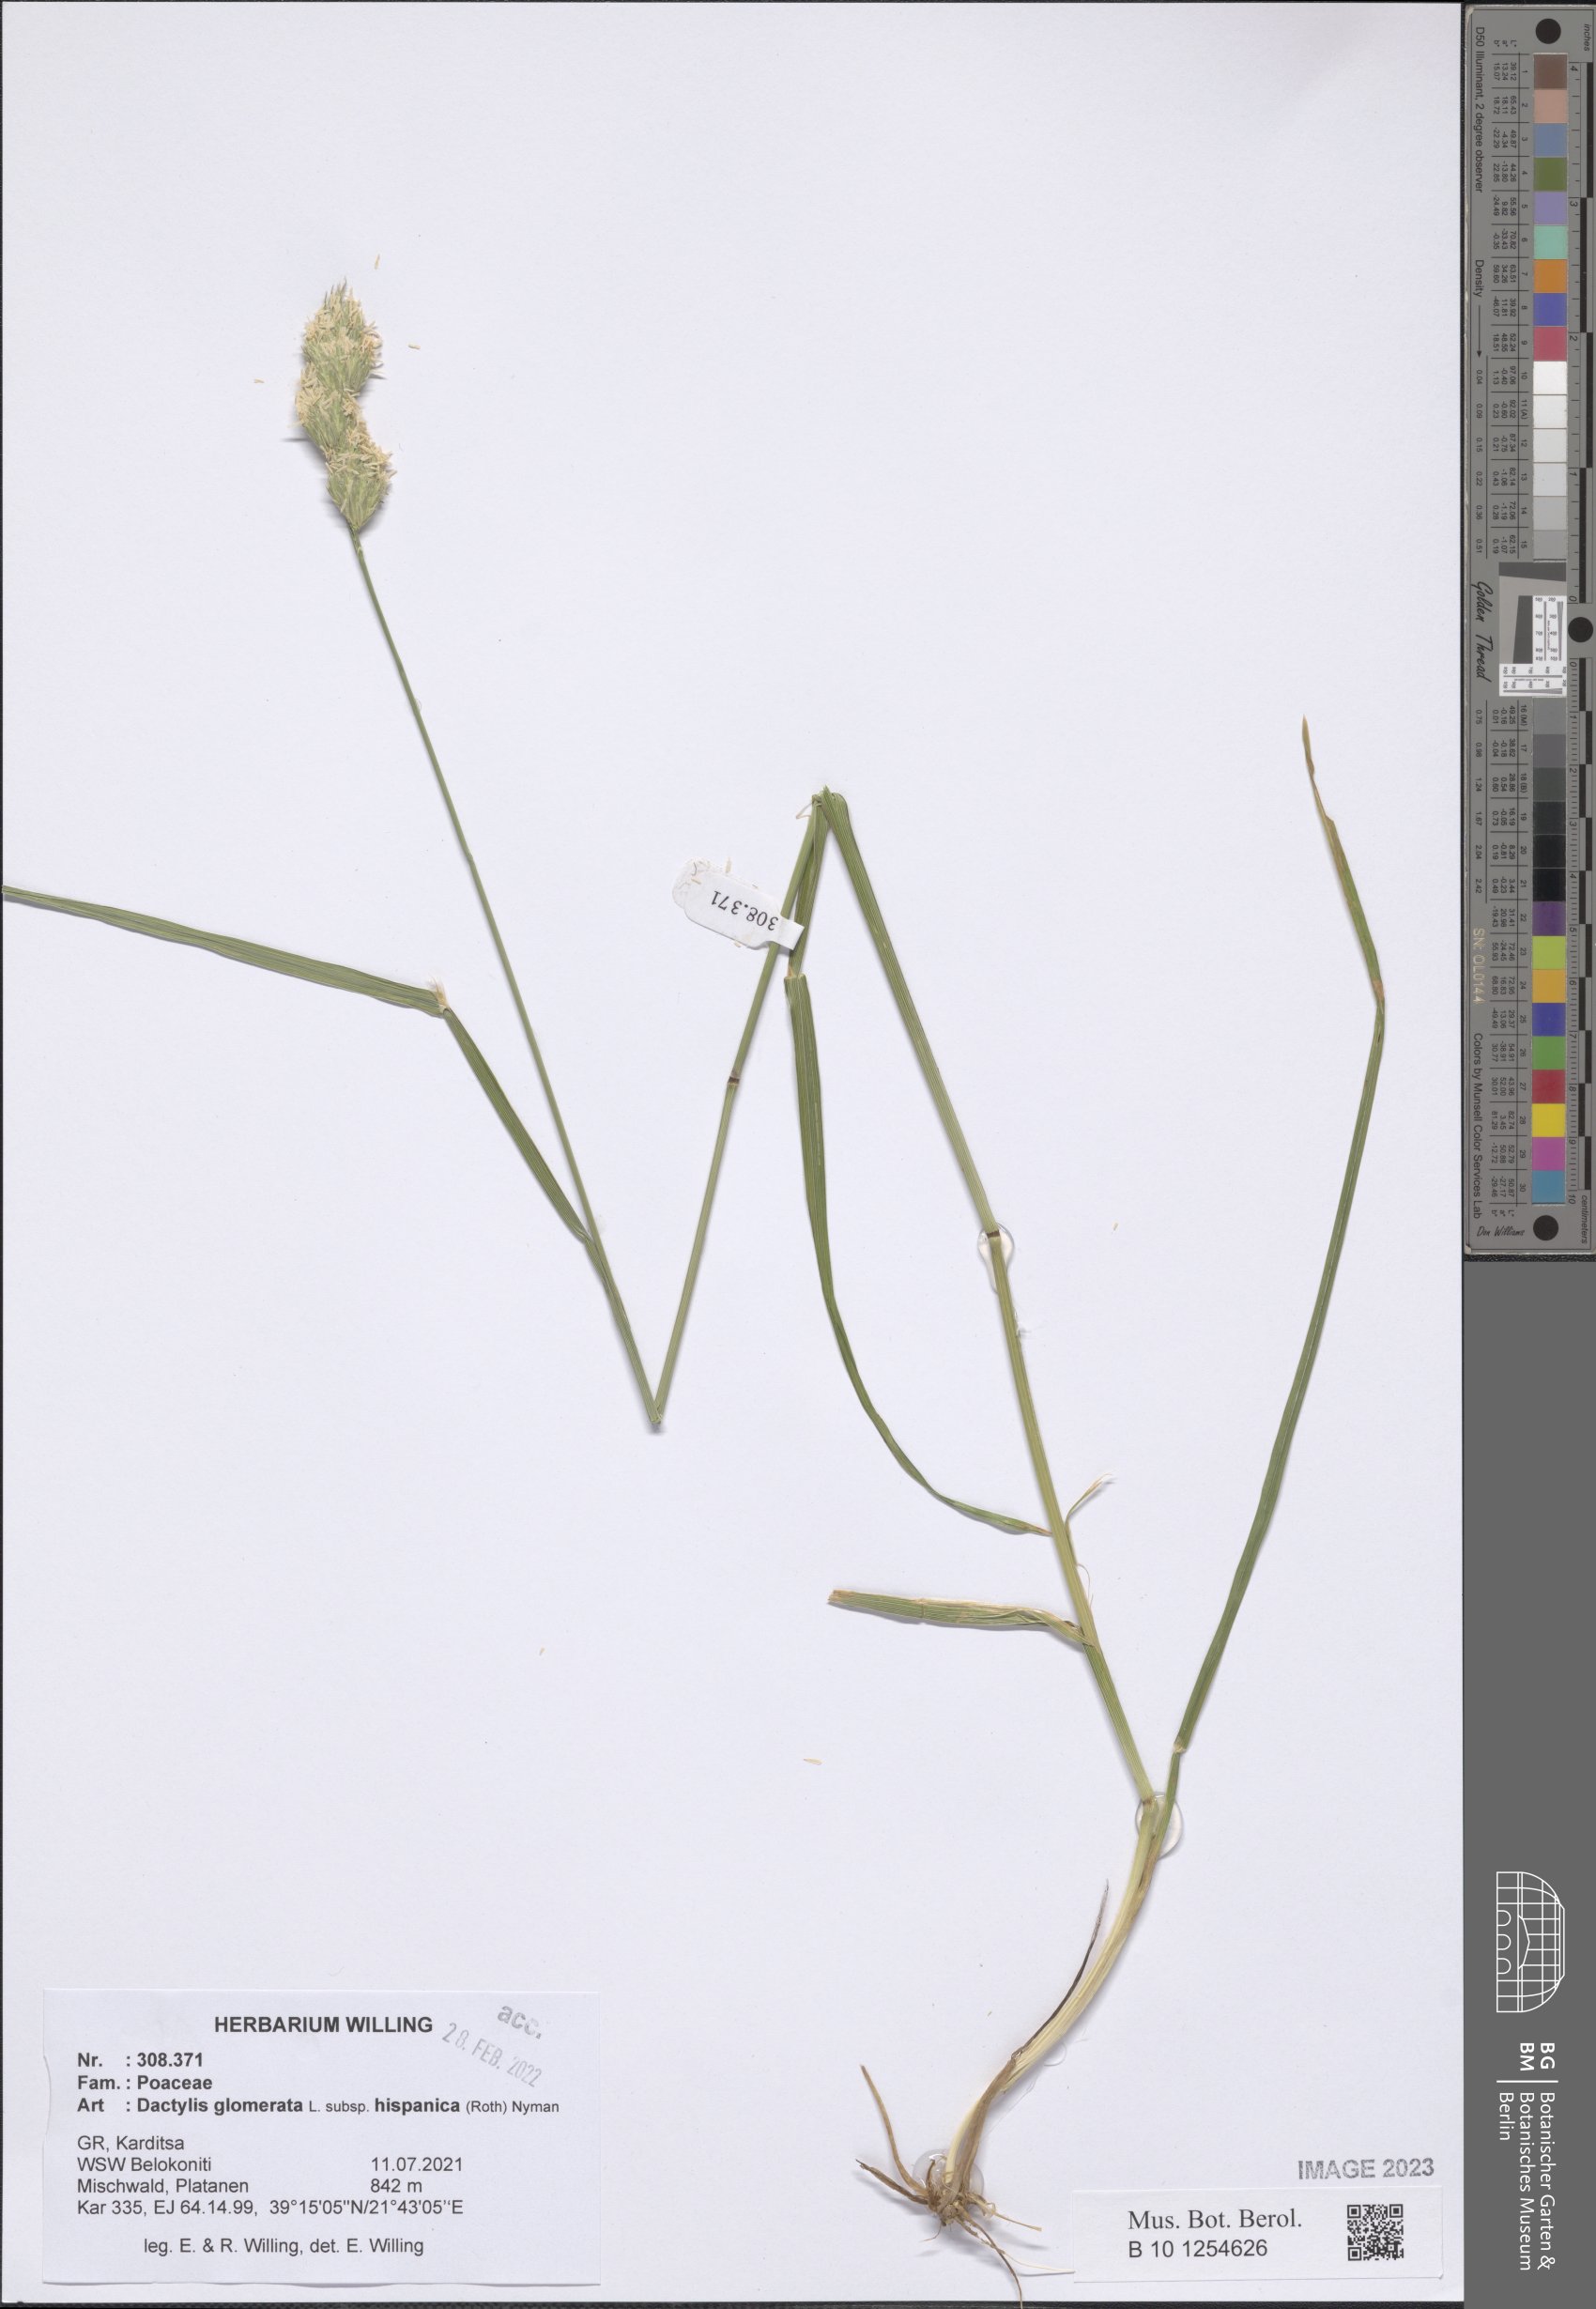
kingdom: Plantae
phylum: Tracheophyta
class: Liliopsida
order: Poales
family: Poaceae
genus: Dactylis
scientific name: Dactylis glomerata
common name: Orchardgrass
